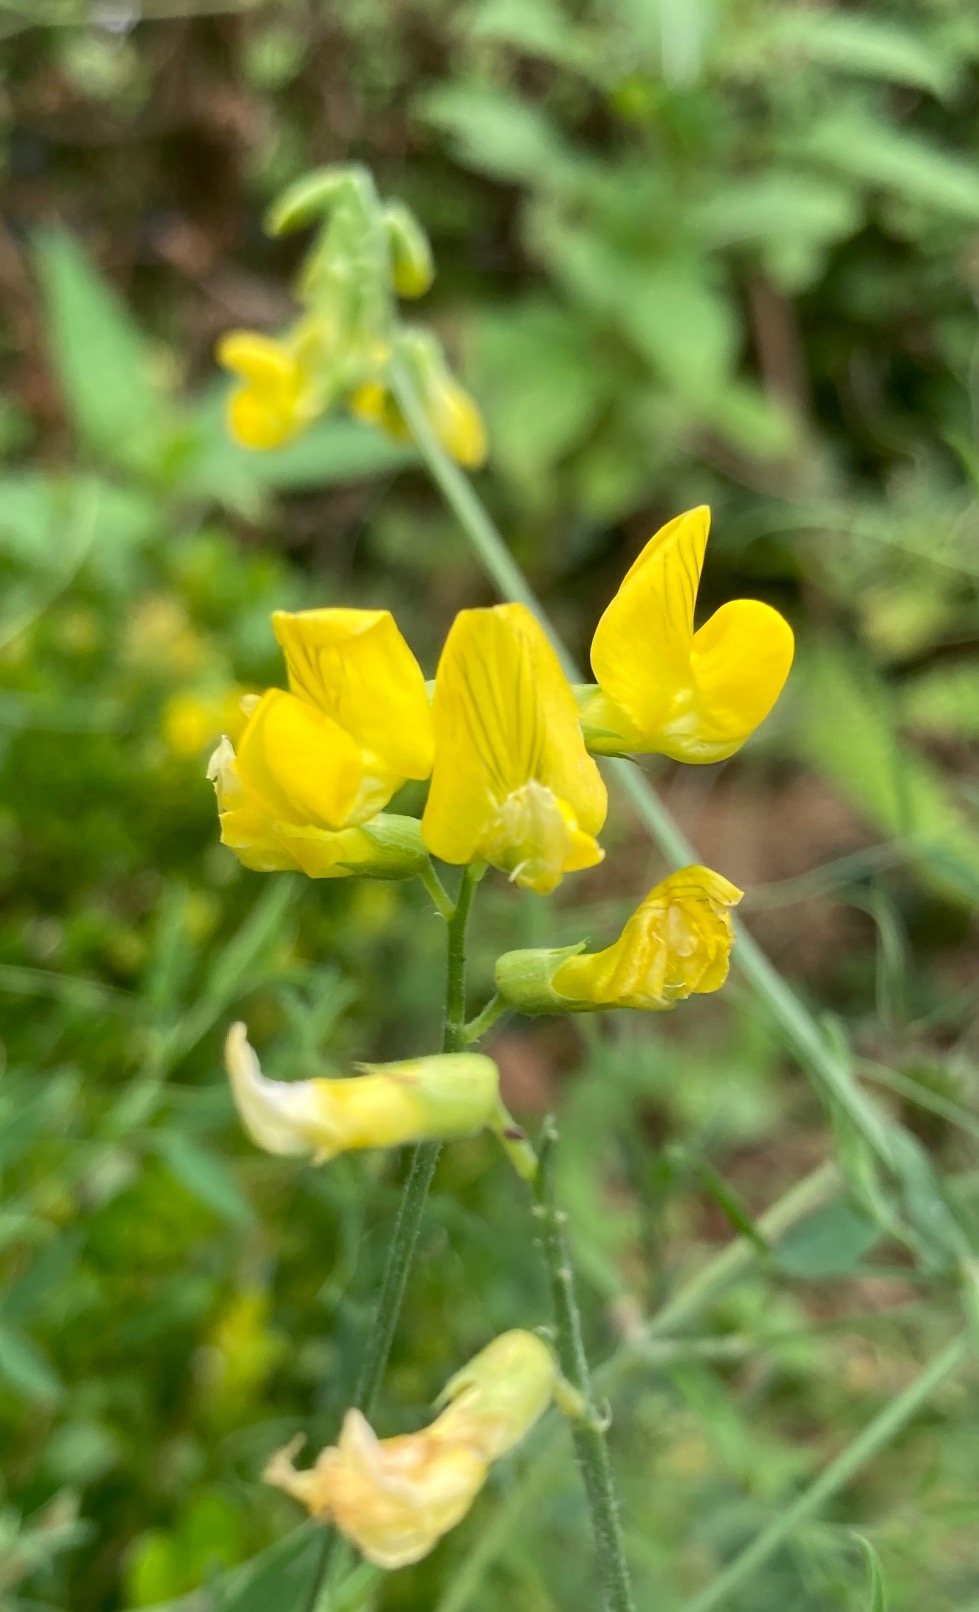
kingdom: Plantae
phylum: Tracheophyta
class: Magnoliopsida
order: Fabales
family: Fabaceae
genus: Lathyrus
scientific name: Lathyrus pratensis
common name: Gul fladbælg
